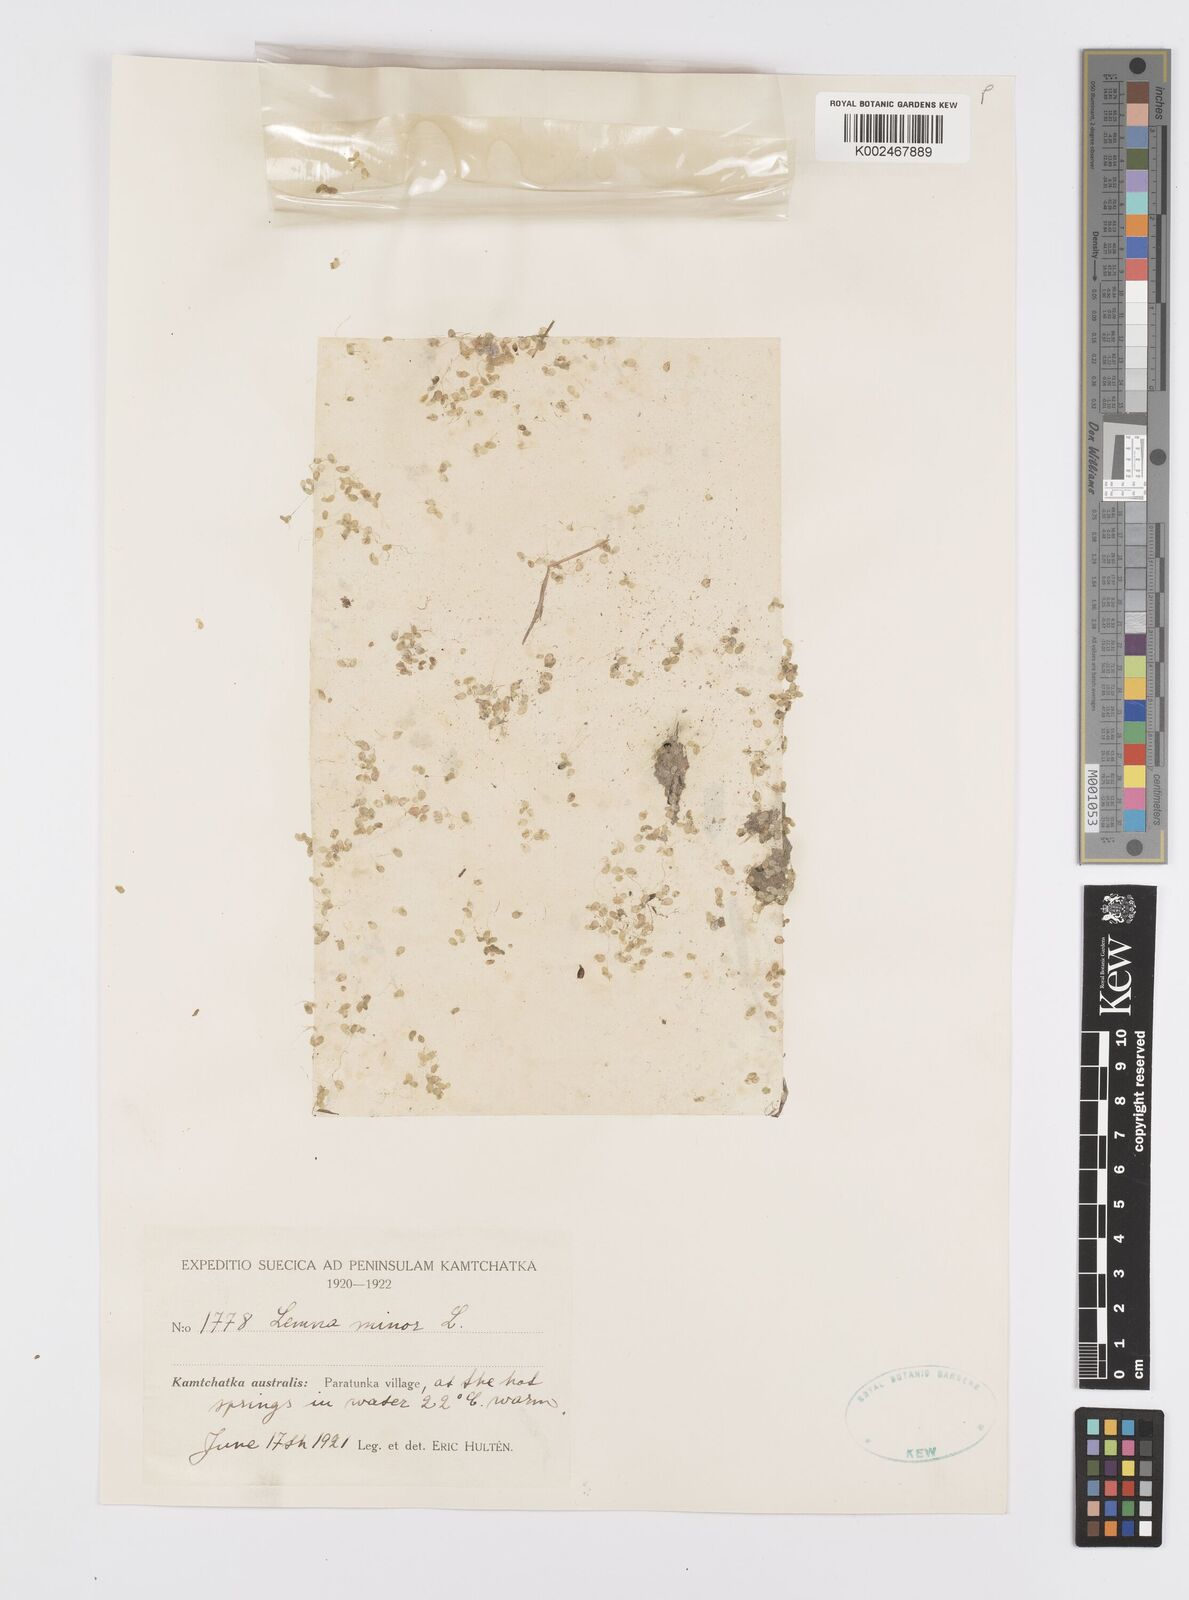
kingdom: Plantae
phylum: Tracheophyta
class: Liliopsida
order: Alismatales
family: Araceae
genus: Lemna
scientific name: Lemna minor
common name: Common duckweed
